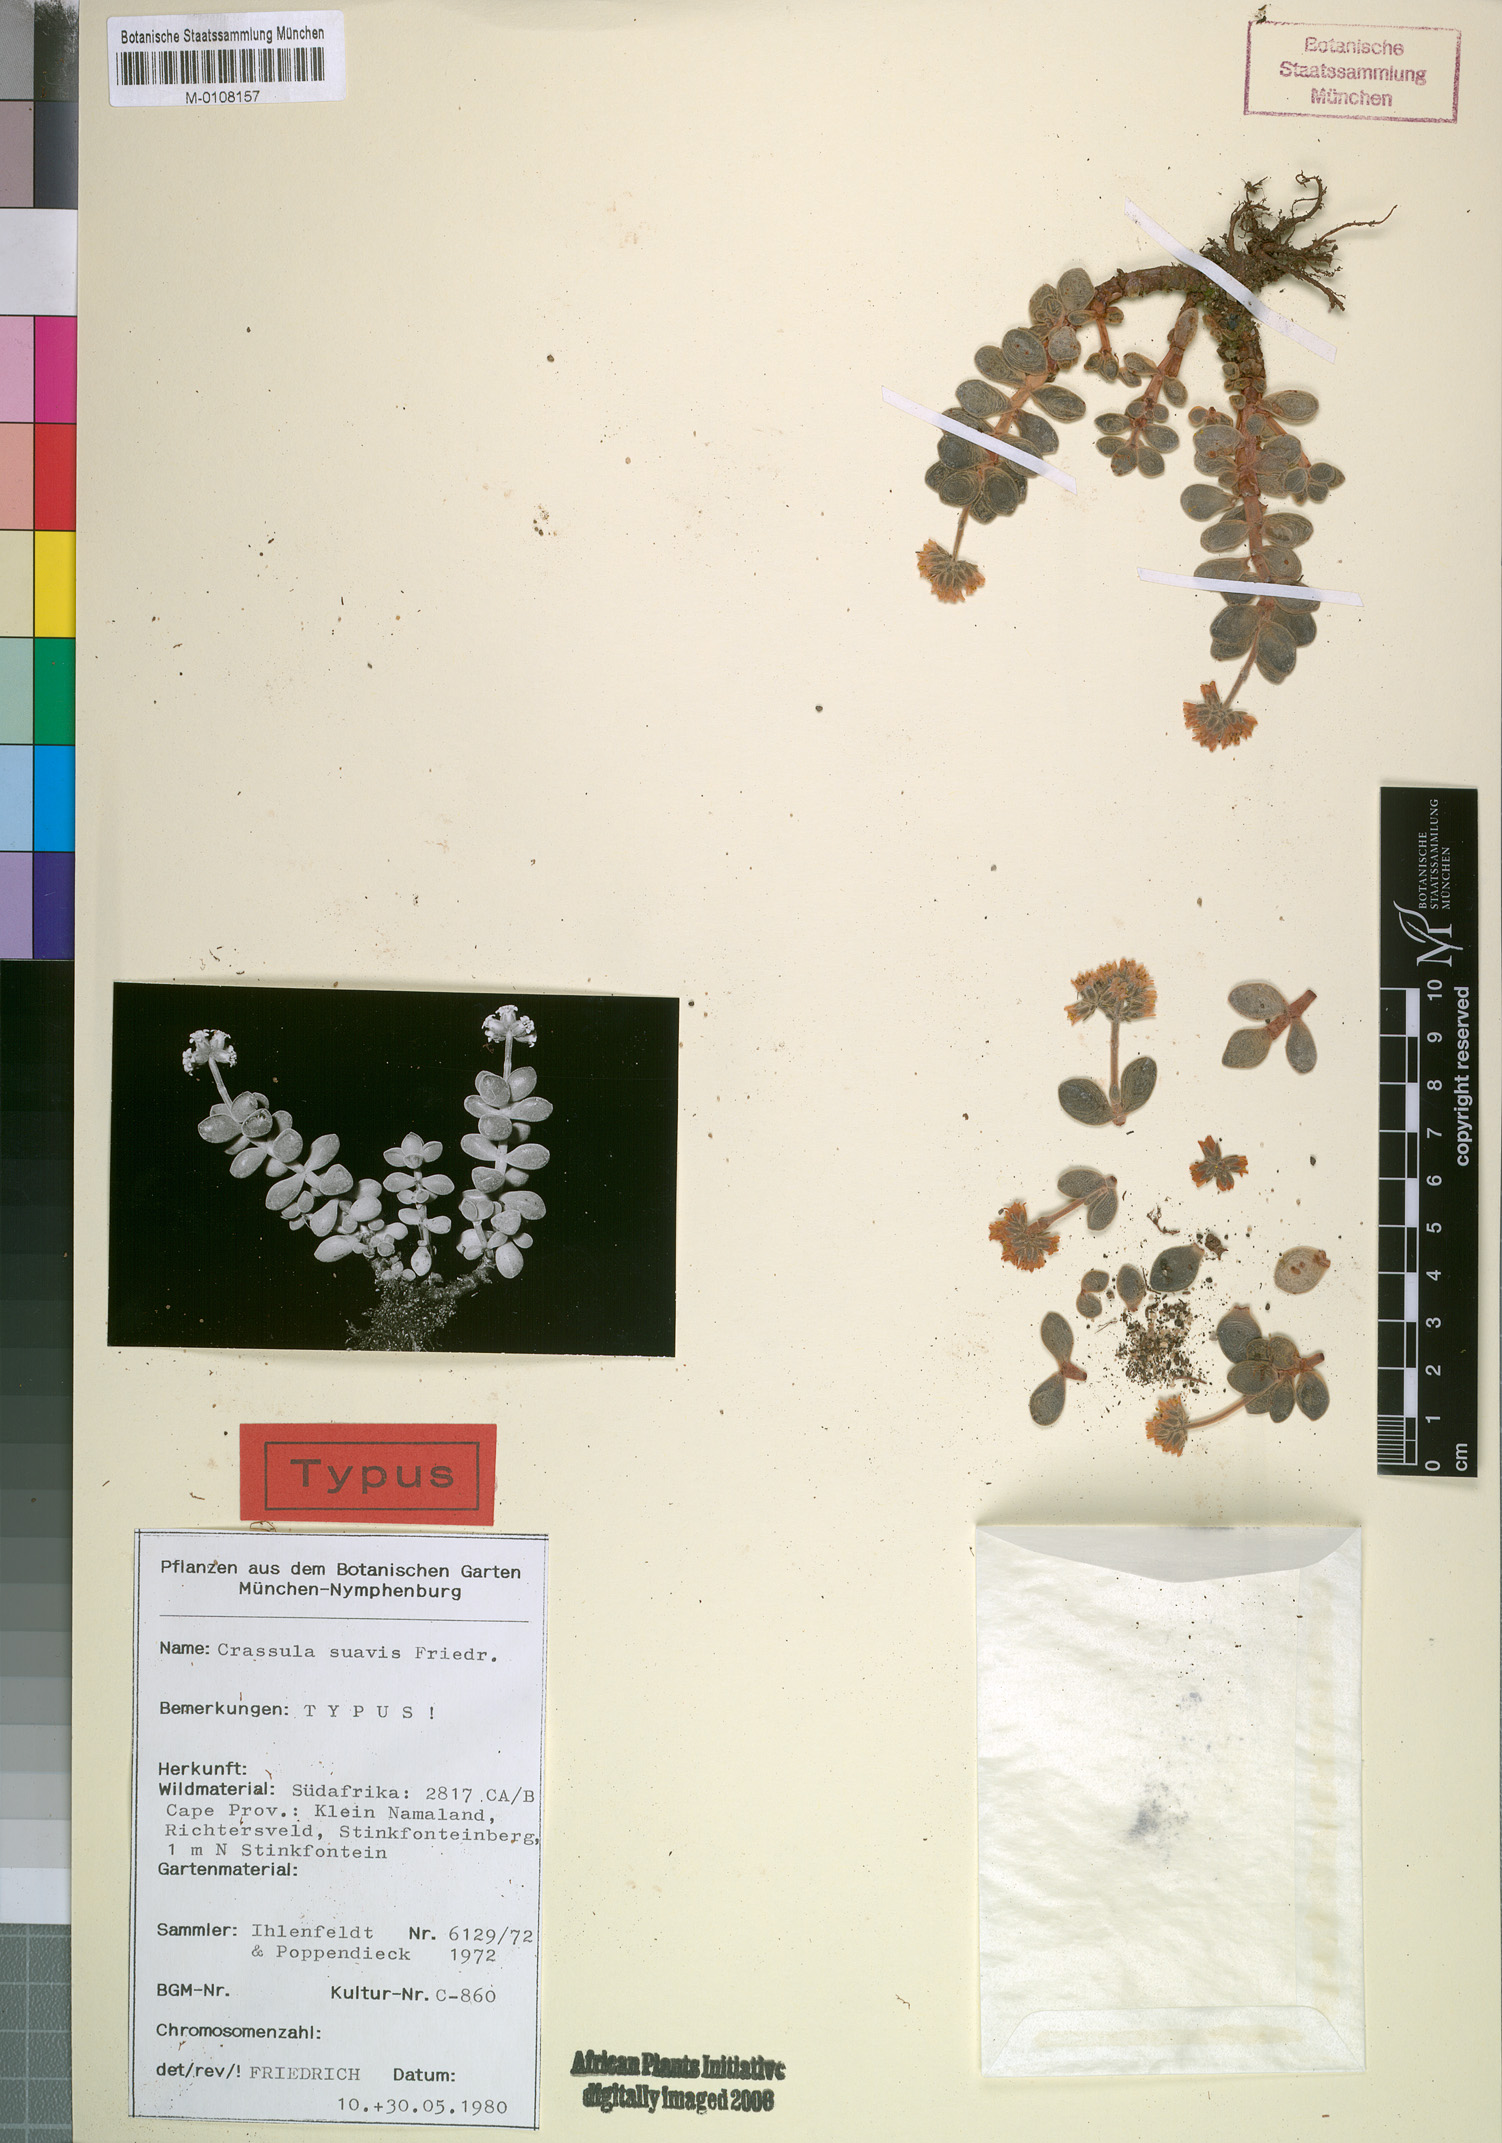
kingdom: Plantae
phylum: Tracheophyta
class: Magnoliopsida
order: Saxifragales
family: Crassulaceae
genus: Crassula
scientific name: Crassula sericea
